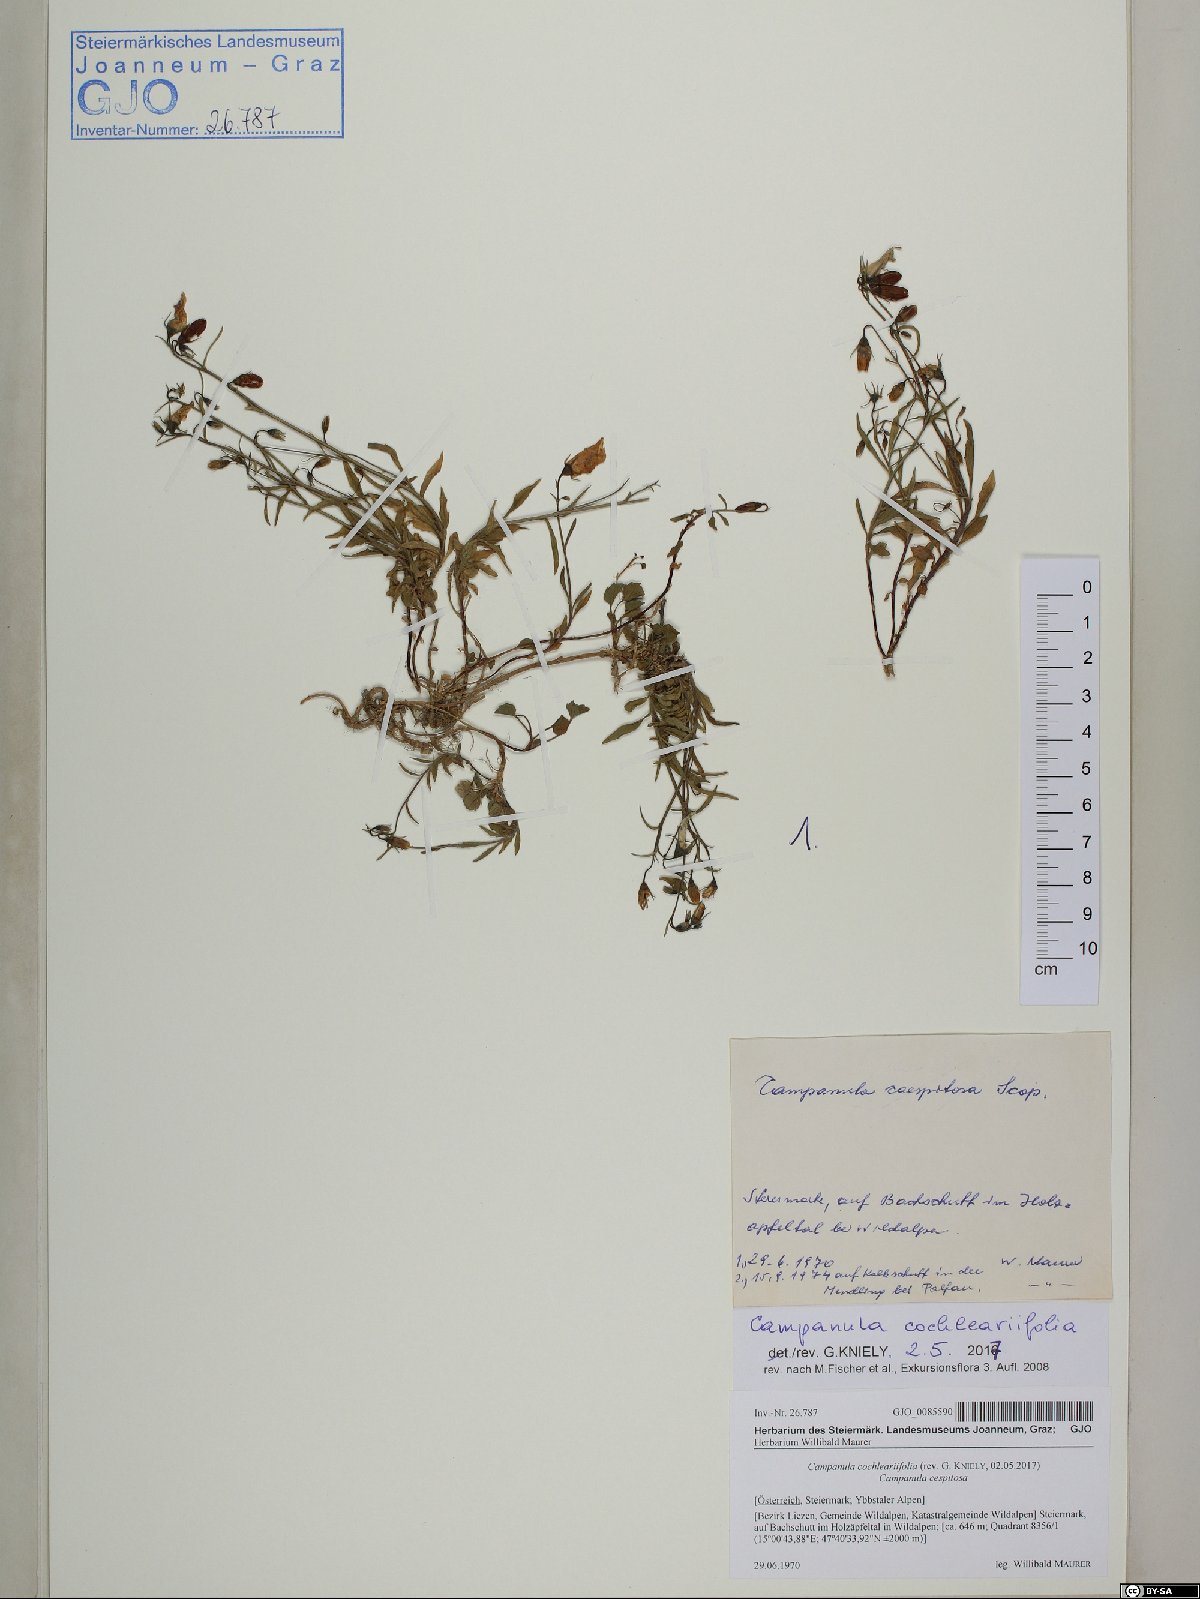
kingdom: Plantae
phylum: Tracheophyta
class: Magnoliopsida
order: Asterales
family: Campanulaceae
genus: Campanula
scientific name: Campanula cochleariifolia
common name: Fairies'-thimbles
